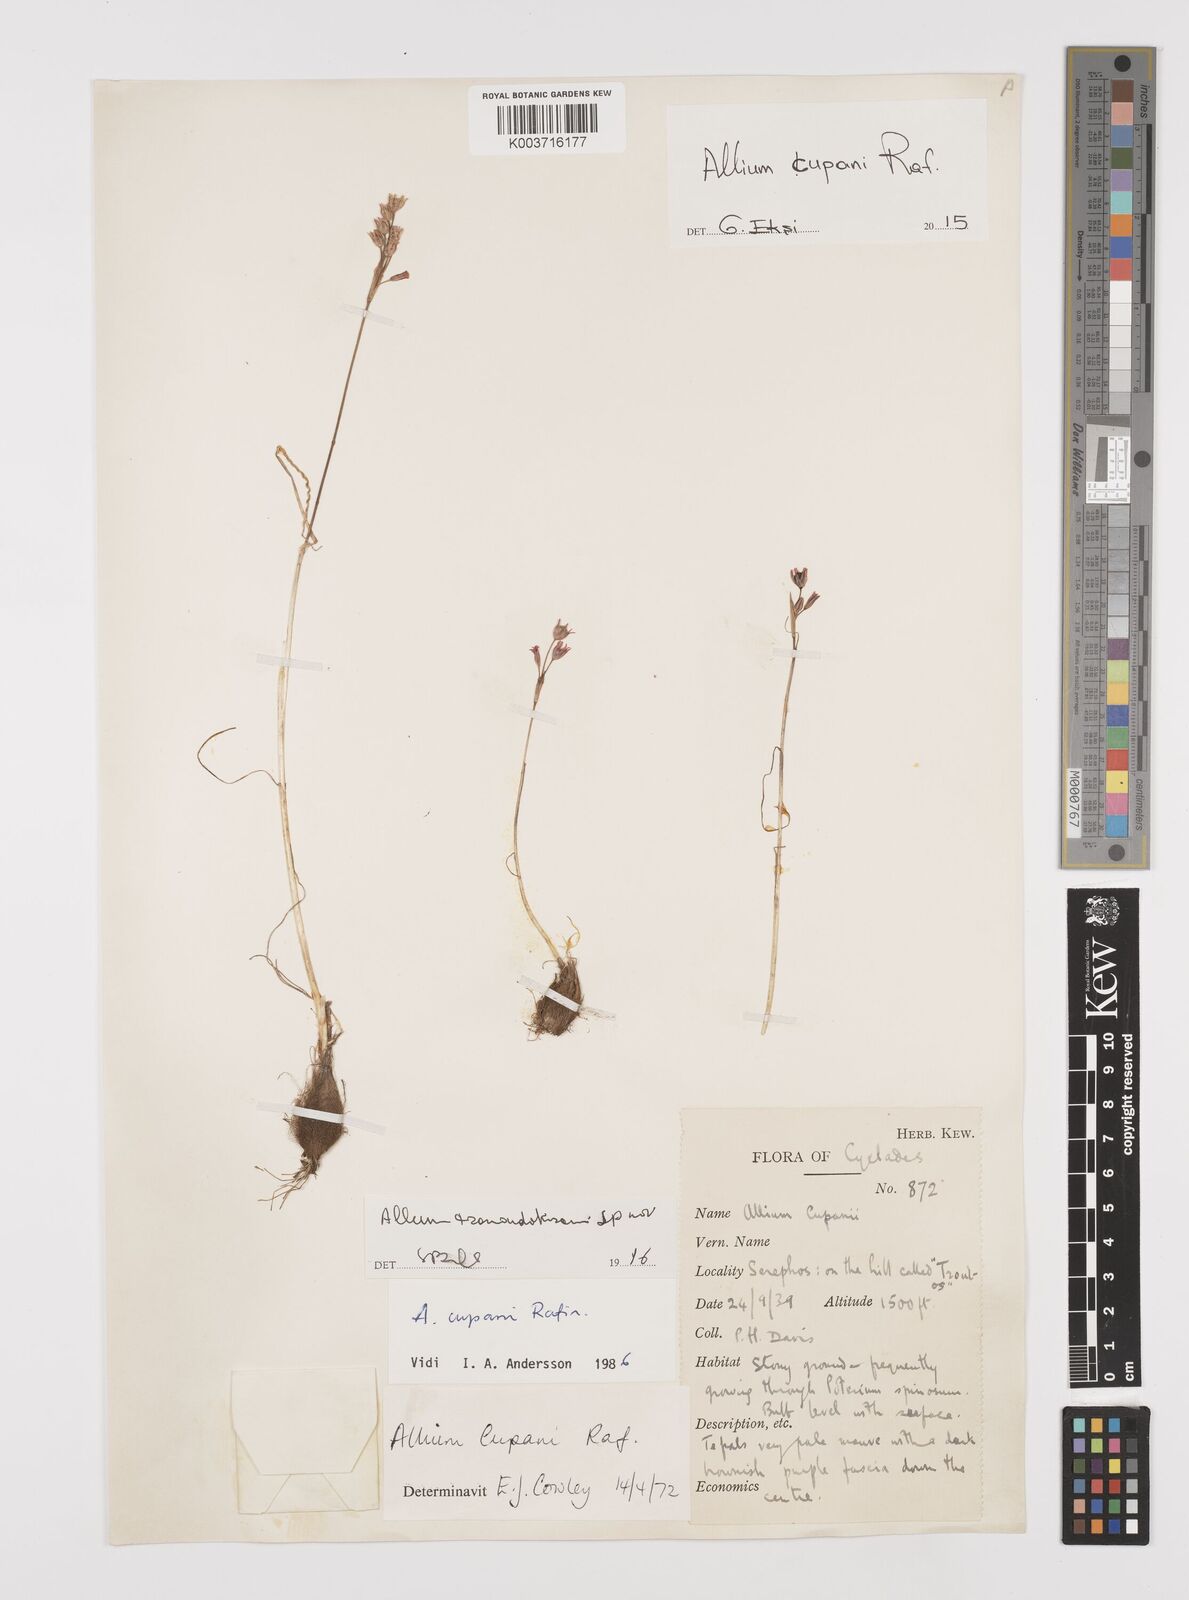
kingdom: Plantae
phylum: Tracheophyta
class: Liliopsida
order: Asparagales
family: Amaryllidaceae
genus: Allium
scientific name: Allium cupani
